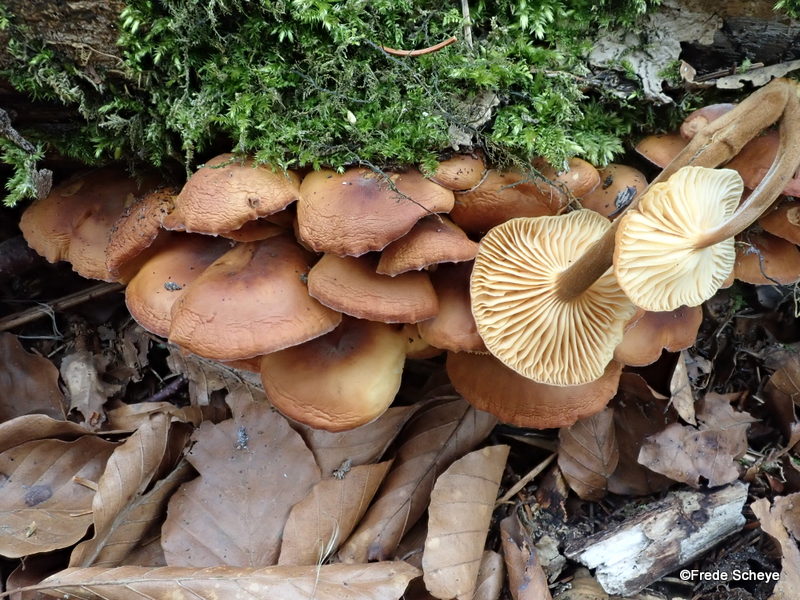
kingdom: Fungi
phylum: Basidiomycota
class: Agaricomycetes
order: Agaricales
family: Physalacriaceae
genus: Flammulina
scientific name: Flammulina velutipes
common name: gul fløjlsfod
